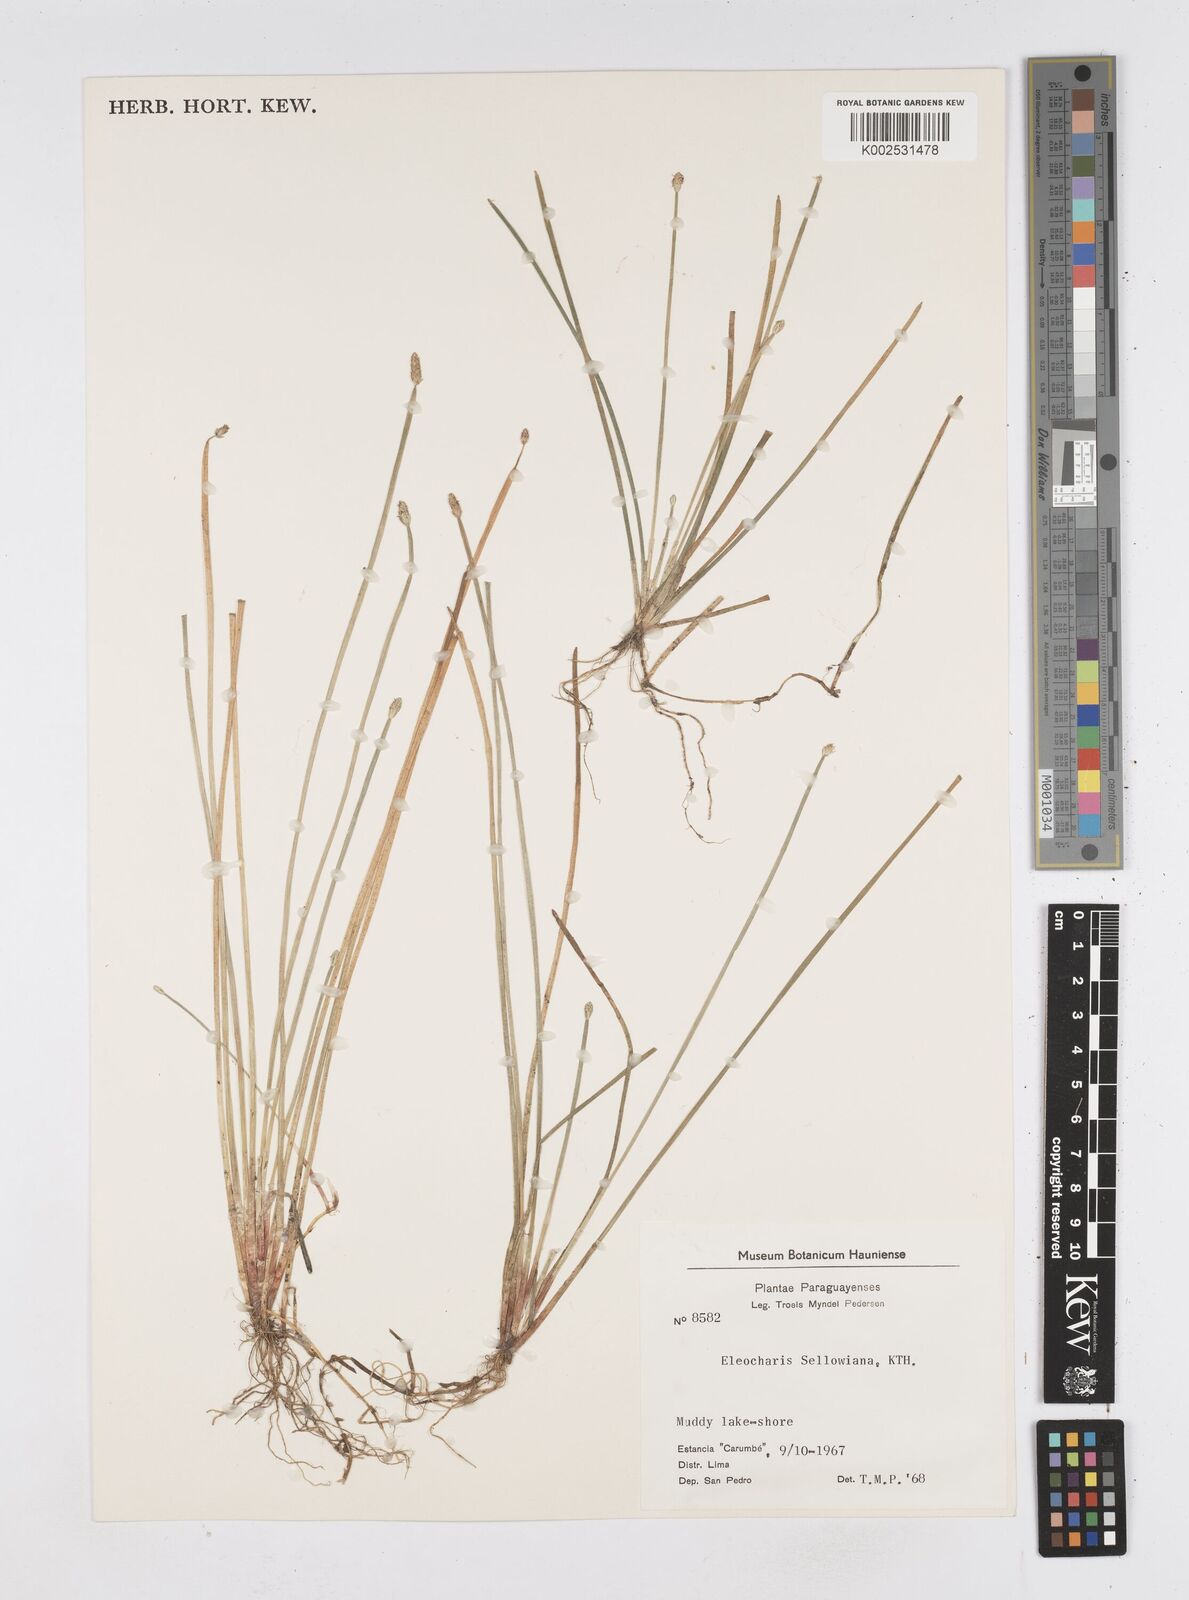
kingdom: Plantae
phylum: Tracheophyta
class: Liliopsida
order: Poales
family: Cyperaceae
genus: Eleocharis
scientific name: Eleocharis sellowiana
